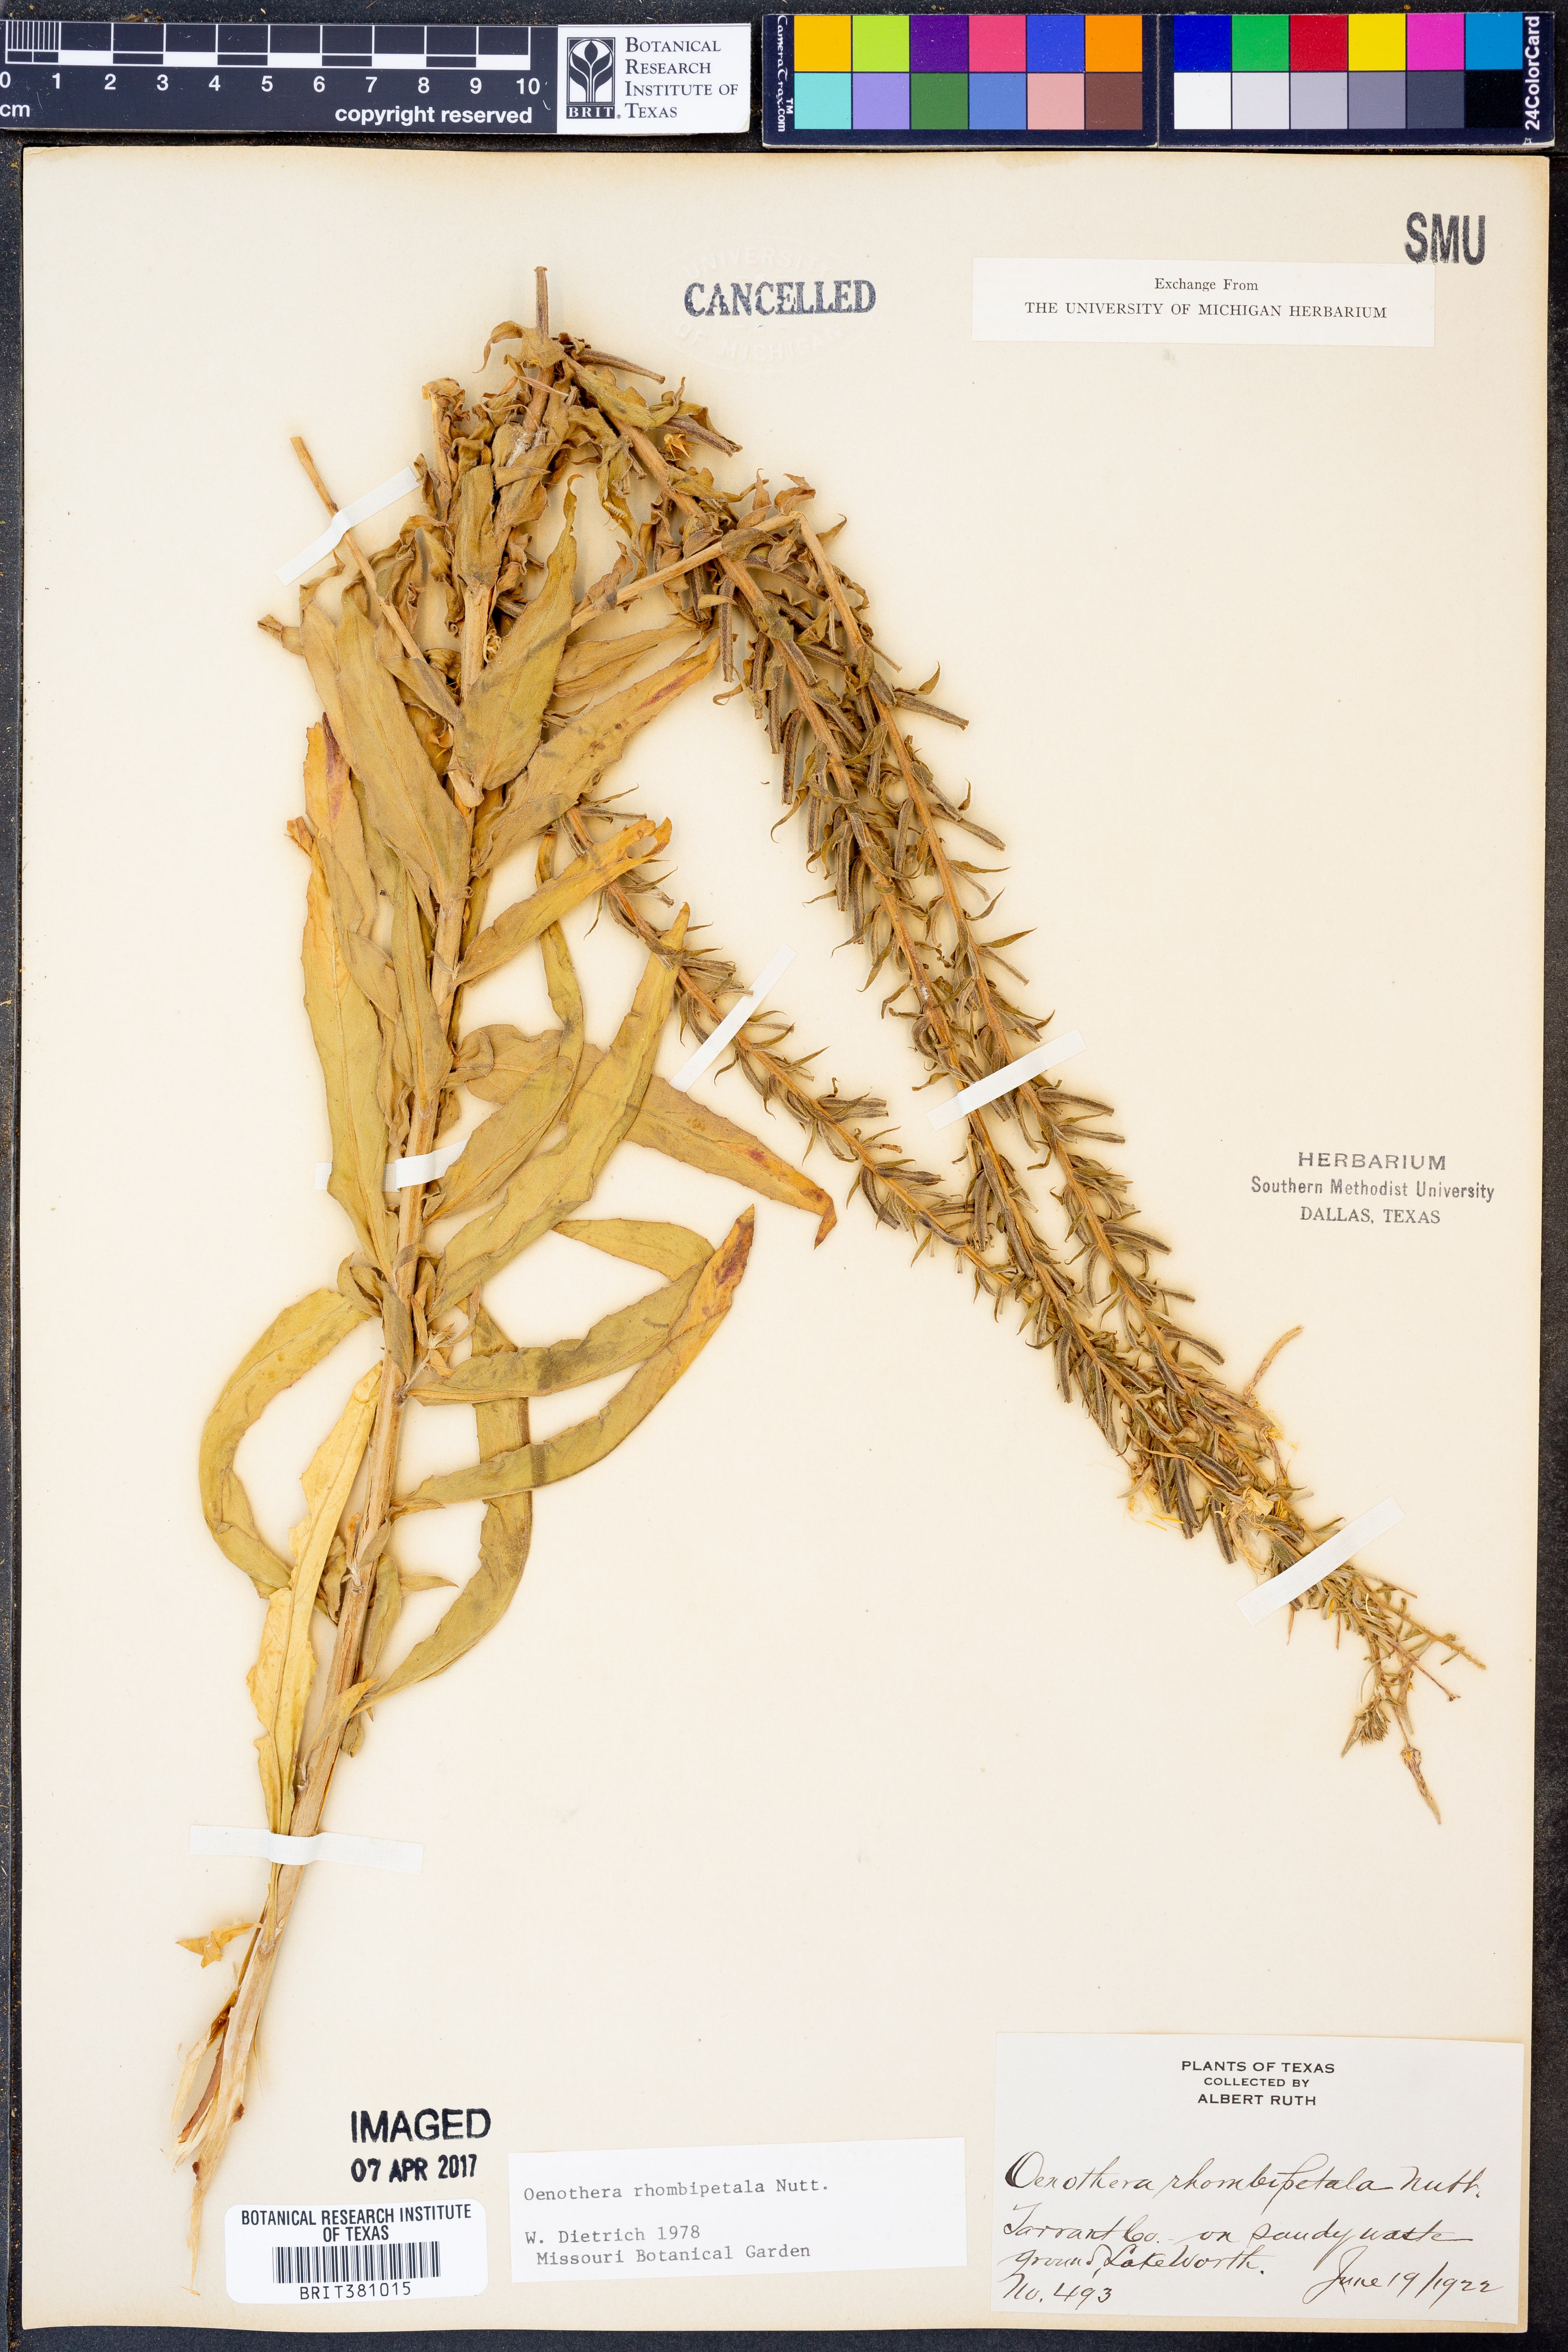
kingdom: Plantae
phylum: Tracheophyta
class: Magnoliopsida
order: Myrtales
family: Onagraceae
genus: Oenothera
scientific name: Oenothera rhombipetala
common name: Four-points evening-primrose
